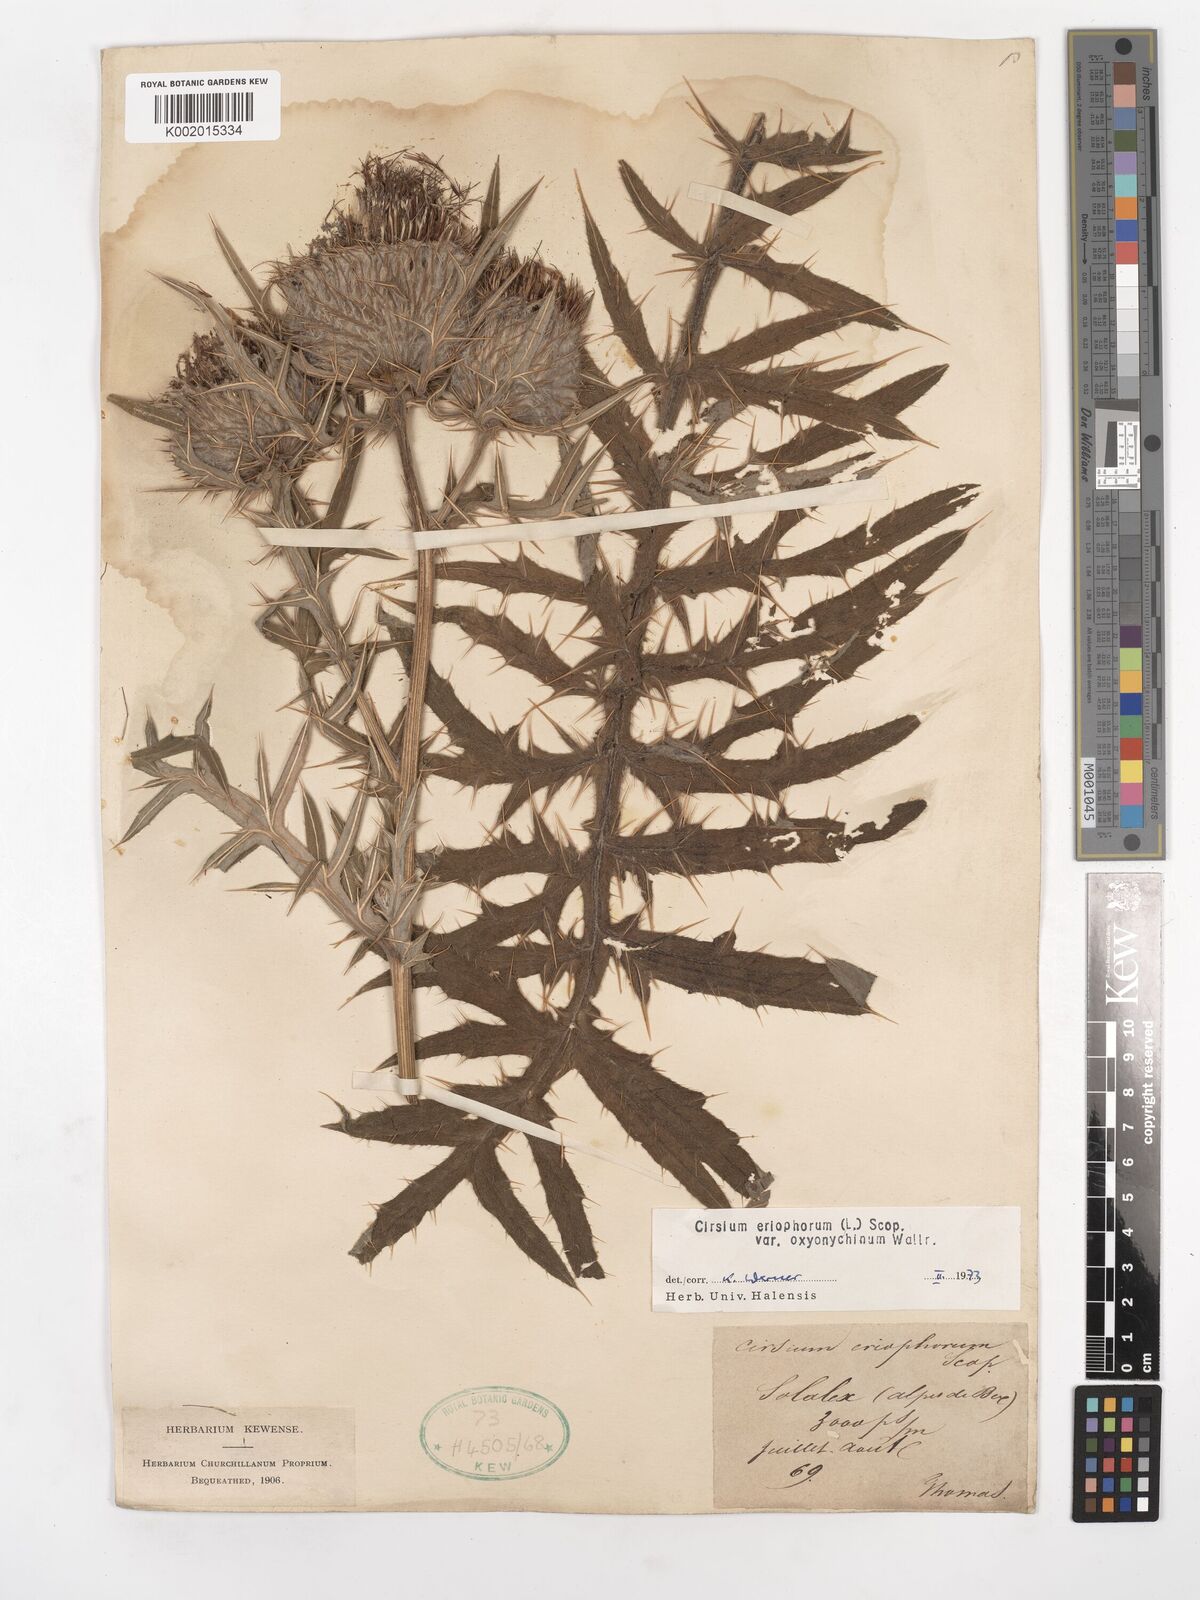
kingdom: Plantae
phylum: Tracheophyta
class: Magnoliopsida
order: Asterales
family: Asteraceae
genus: Lophiolepis
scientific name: Lophiolepis eriophora
